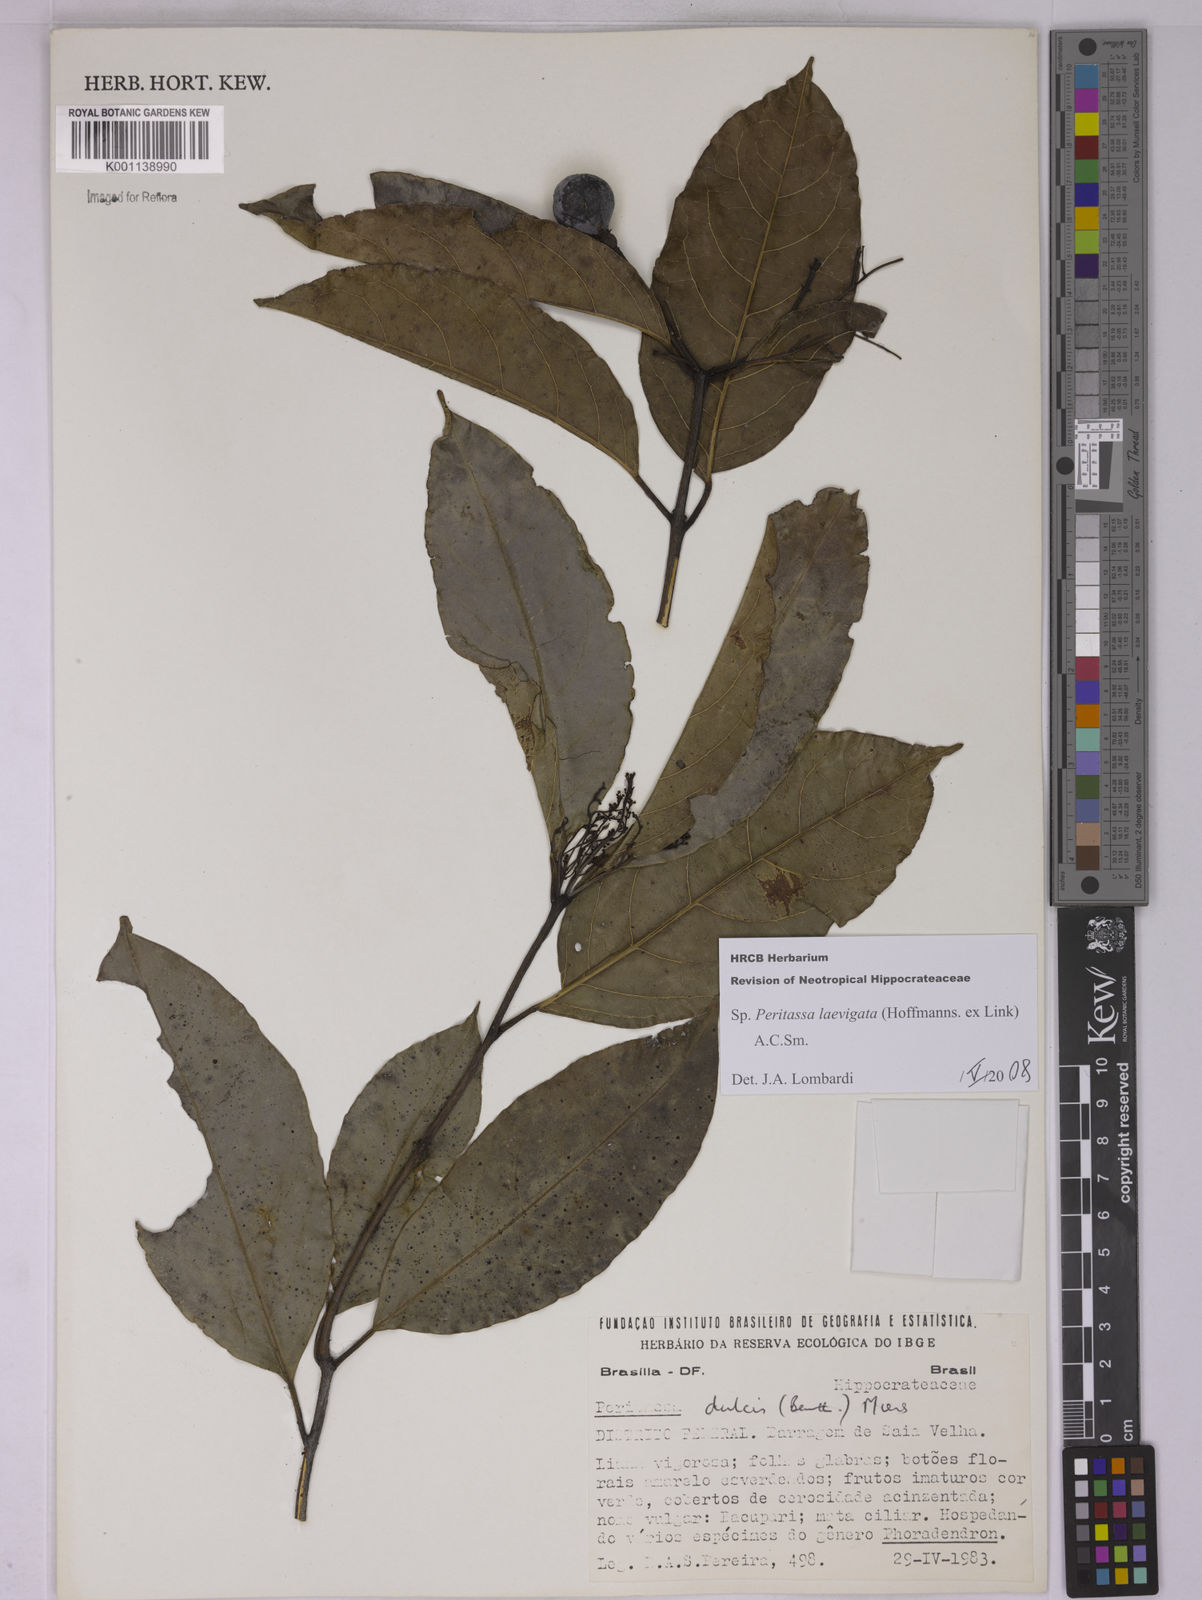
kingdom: Plantae
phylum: Tracheophyta
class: Magnoliopsida
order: Celastrales
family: Celastraceae
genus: Peritassa
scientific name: Peritassa laevigata
